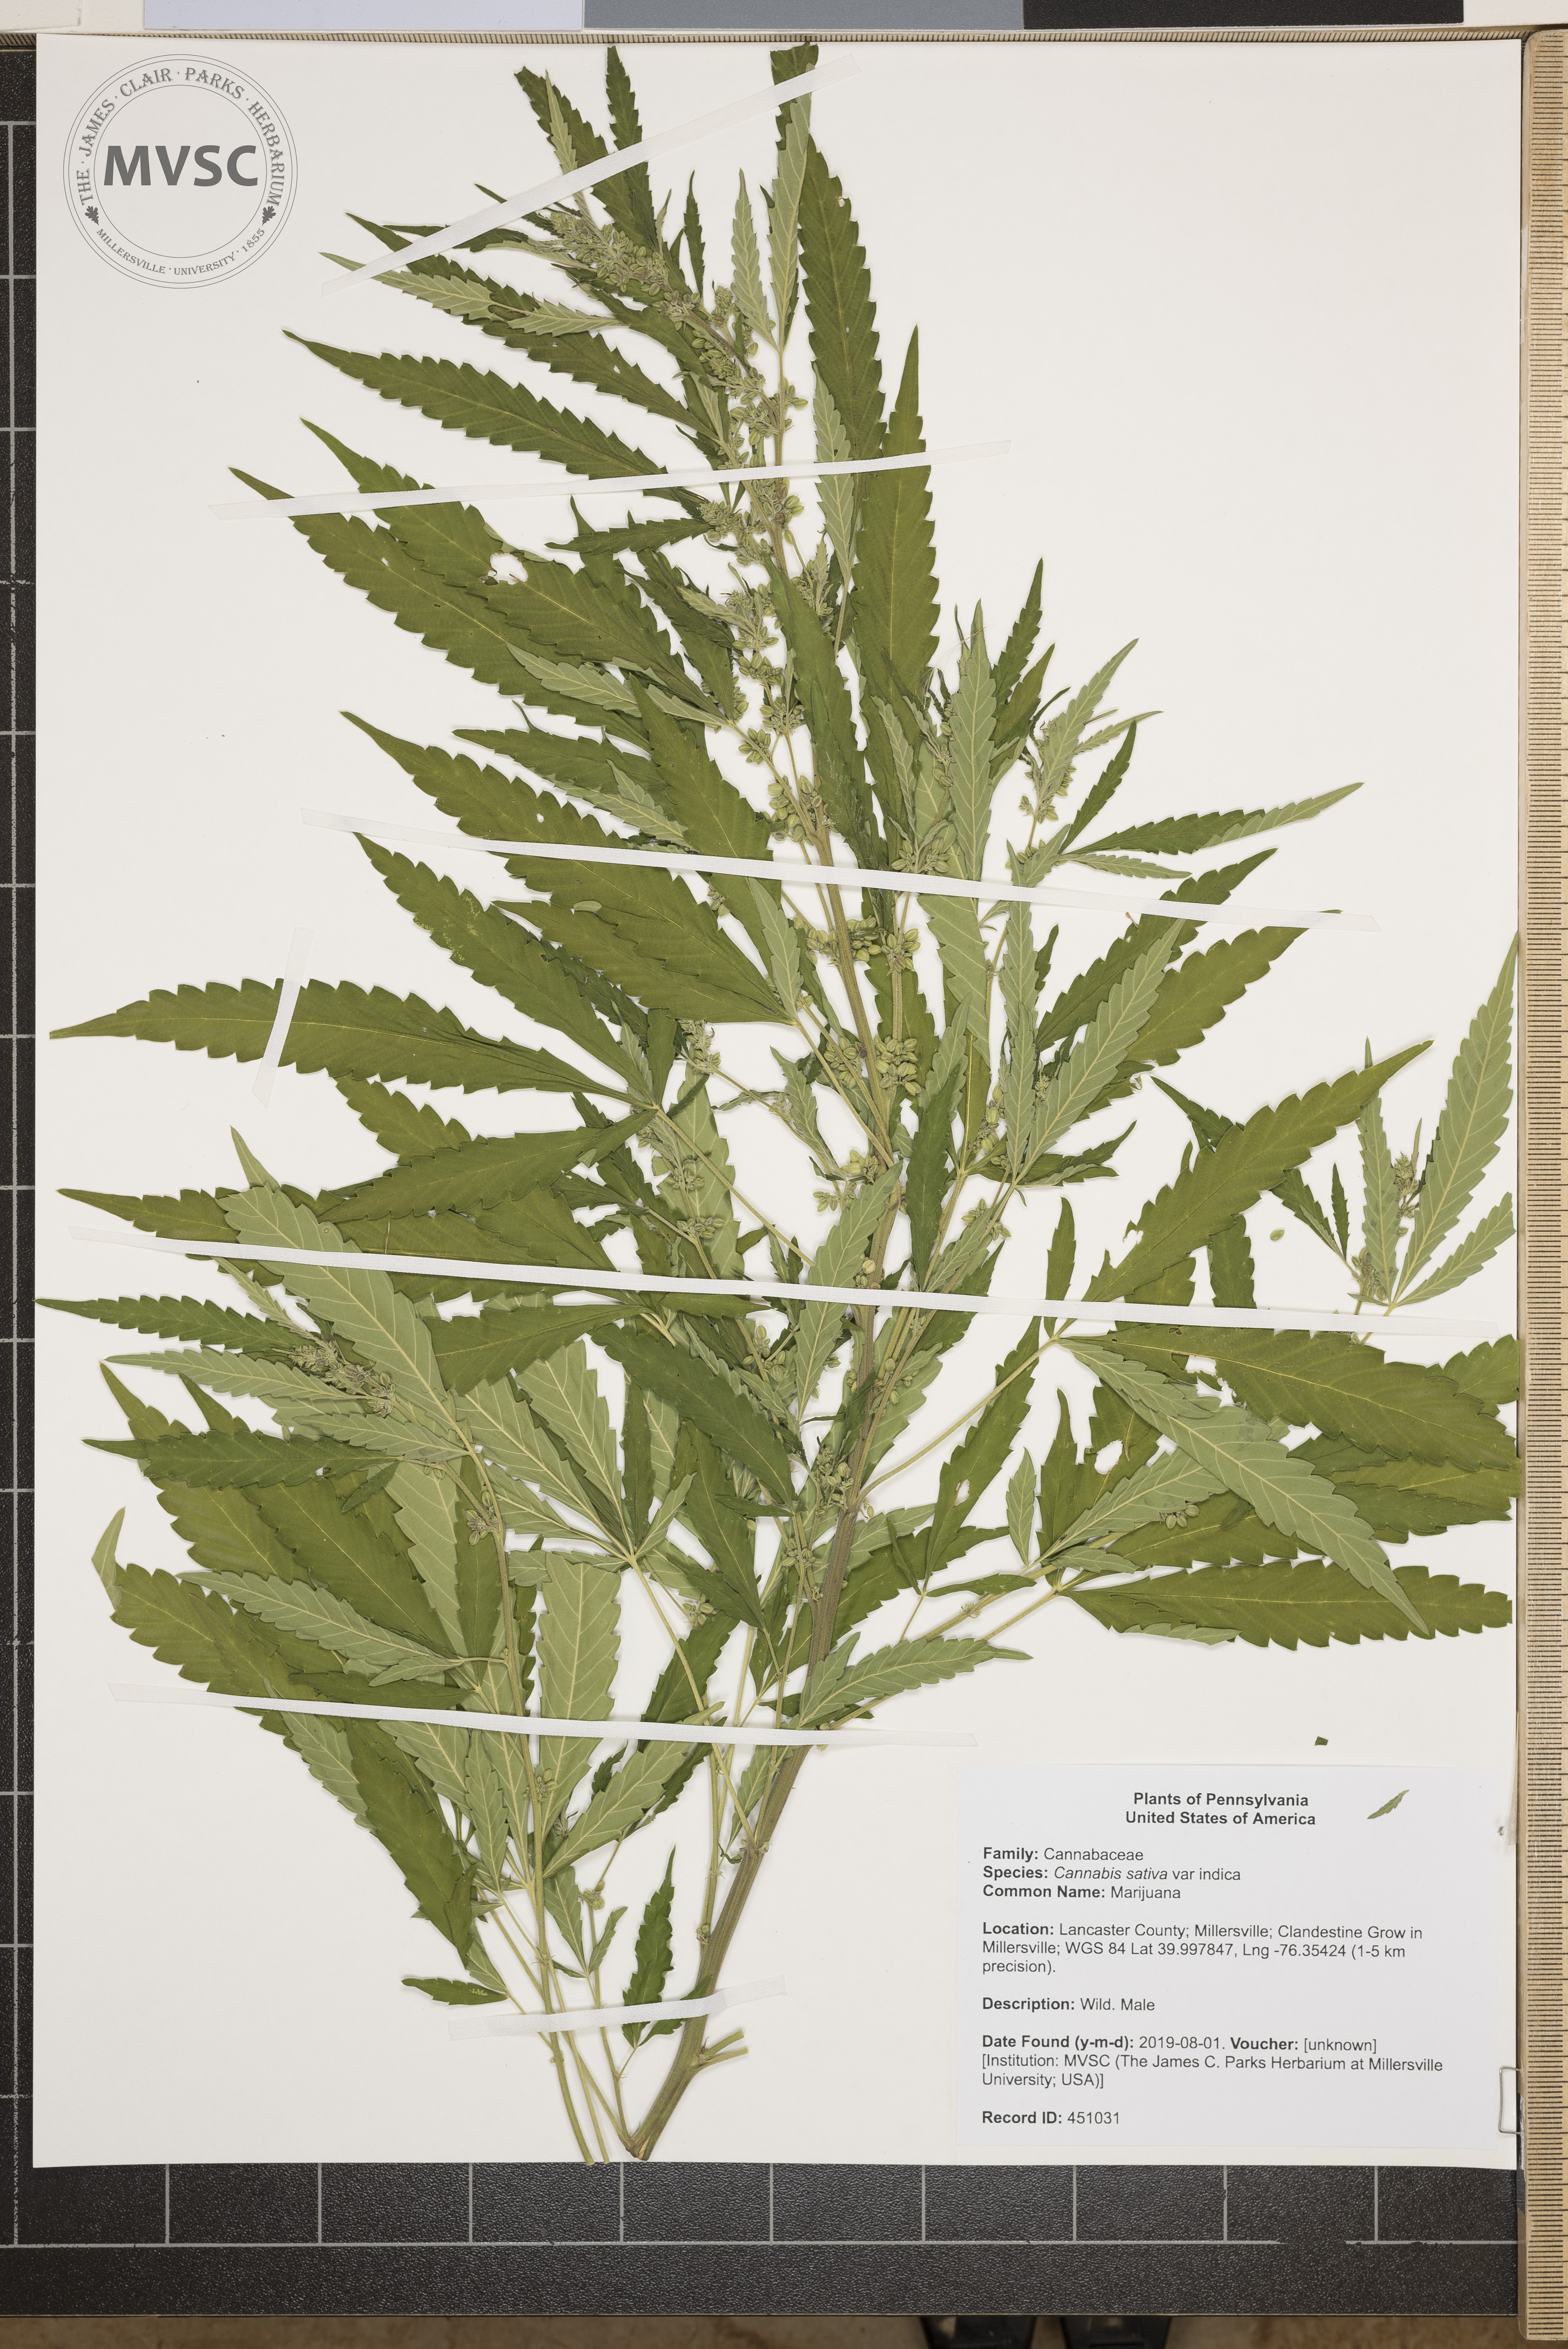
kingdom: Plantae
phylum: Tracheophyta
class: Magnoliopsida
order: Rosales
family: Cannabaceae
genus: Cannabis
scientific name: Cannabis sativa
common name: Marijuana
